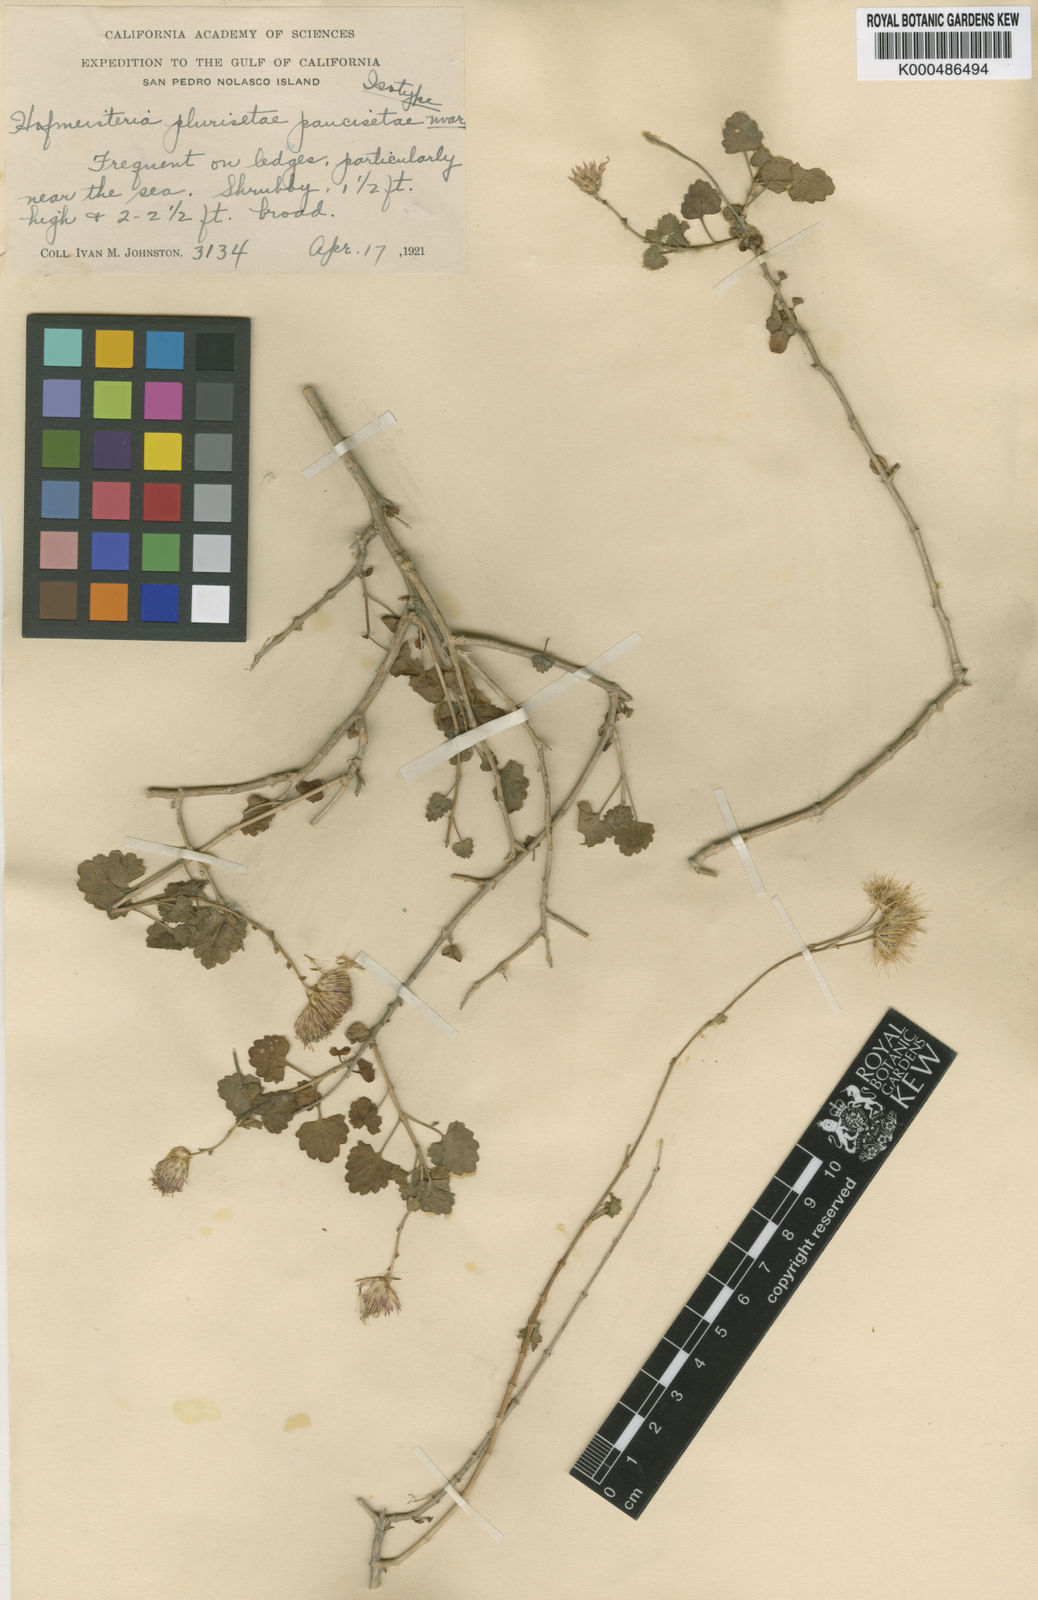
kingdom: Plantae
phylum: Tracheophyta
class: Magnoliopsida
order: Asterales
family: Asteraceae
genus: Pleurocoronis
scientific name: Pleurocoronis pluriseta
